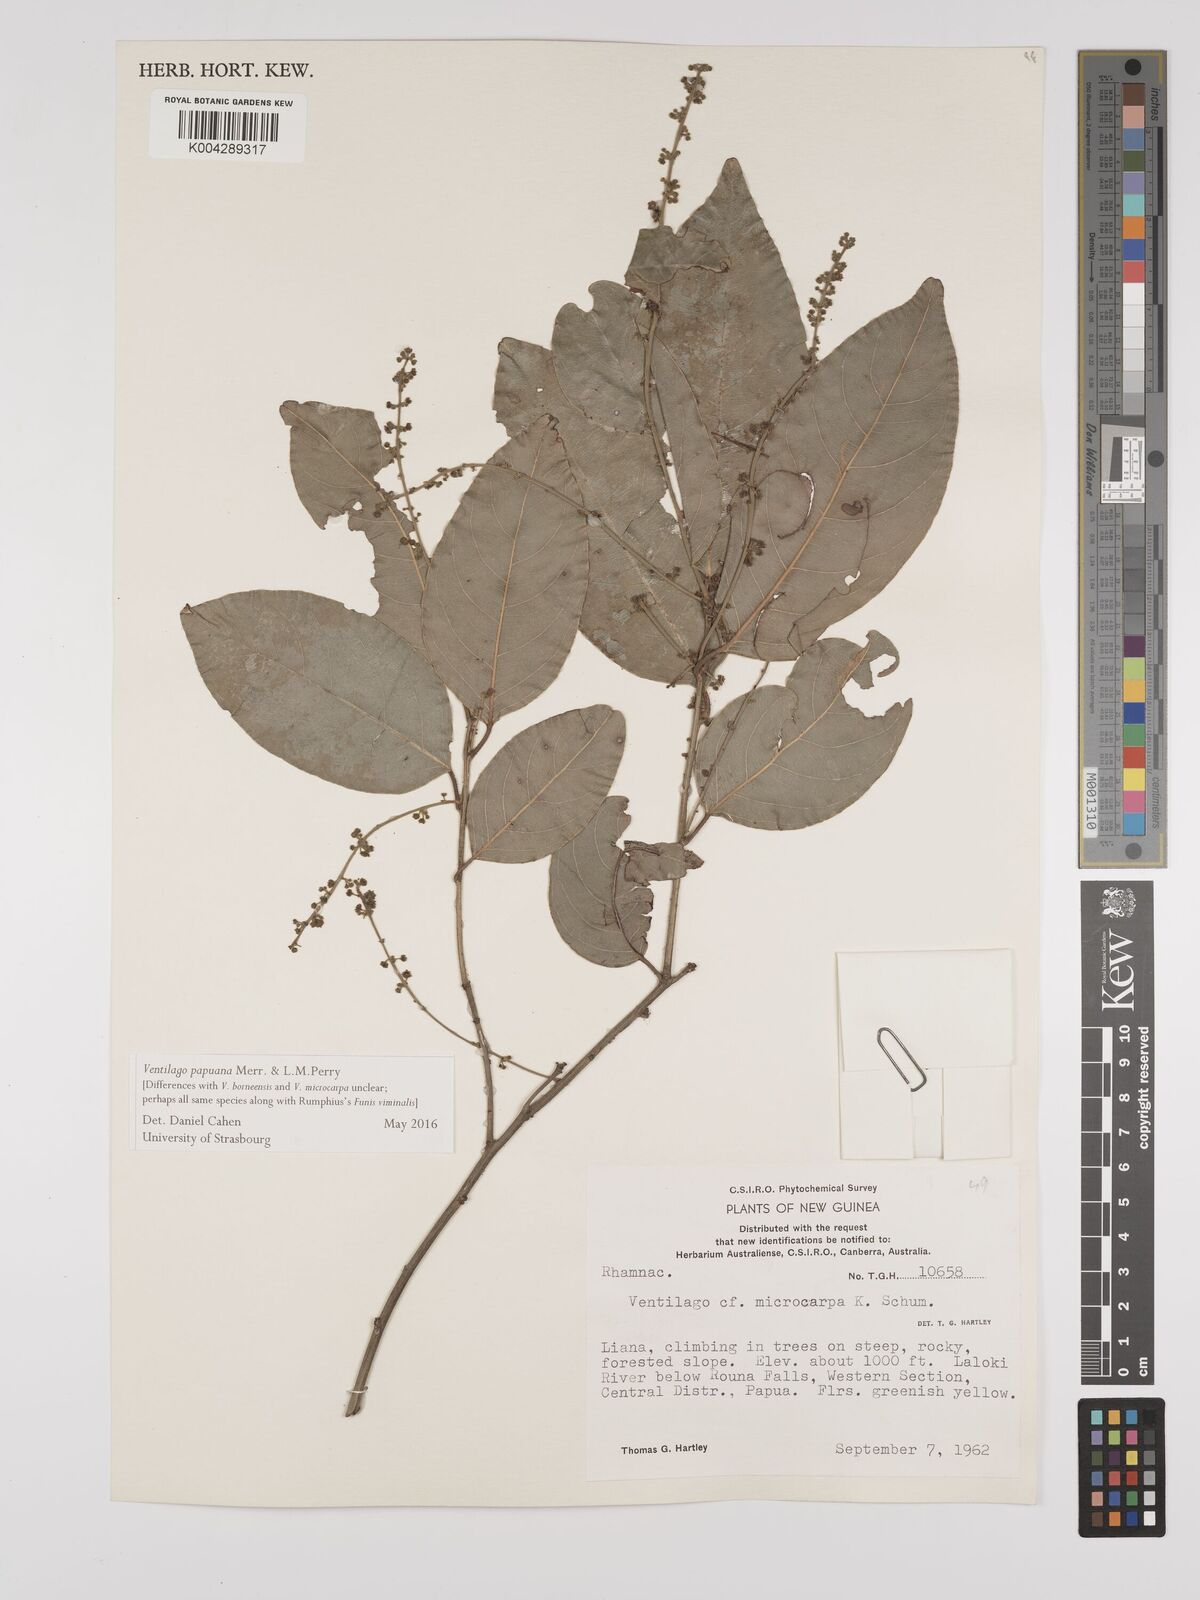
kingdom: Plantae
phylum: Tracheophyta
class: Magnoliopsida
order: Rosales
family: Rhamnaceae
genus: Ventilago
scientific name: Ventilago papuana
